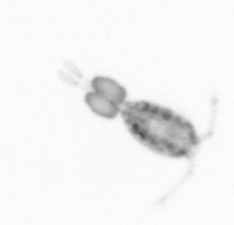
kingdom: Animalia
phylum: Arthropoda
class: Copepoda
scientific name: Copepoda
